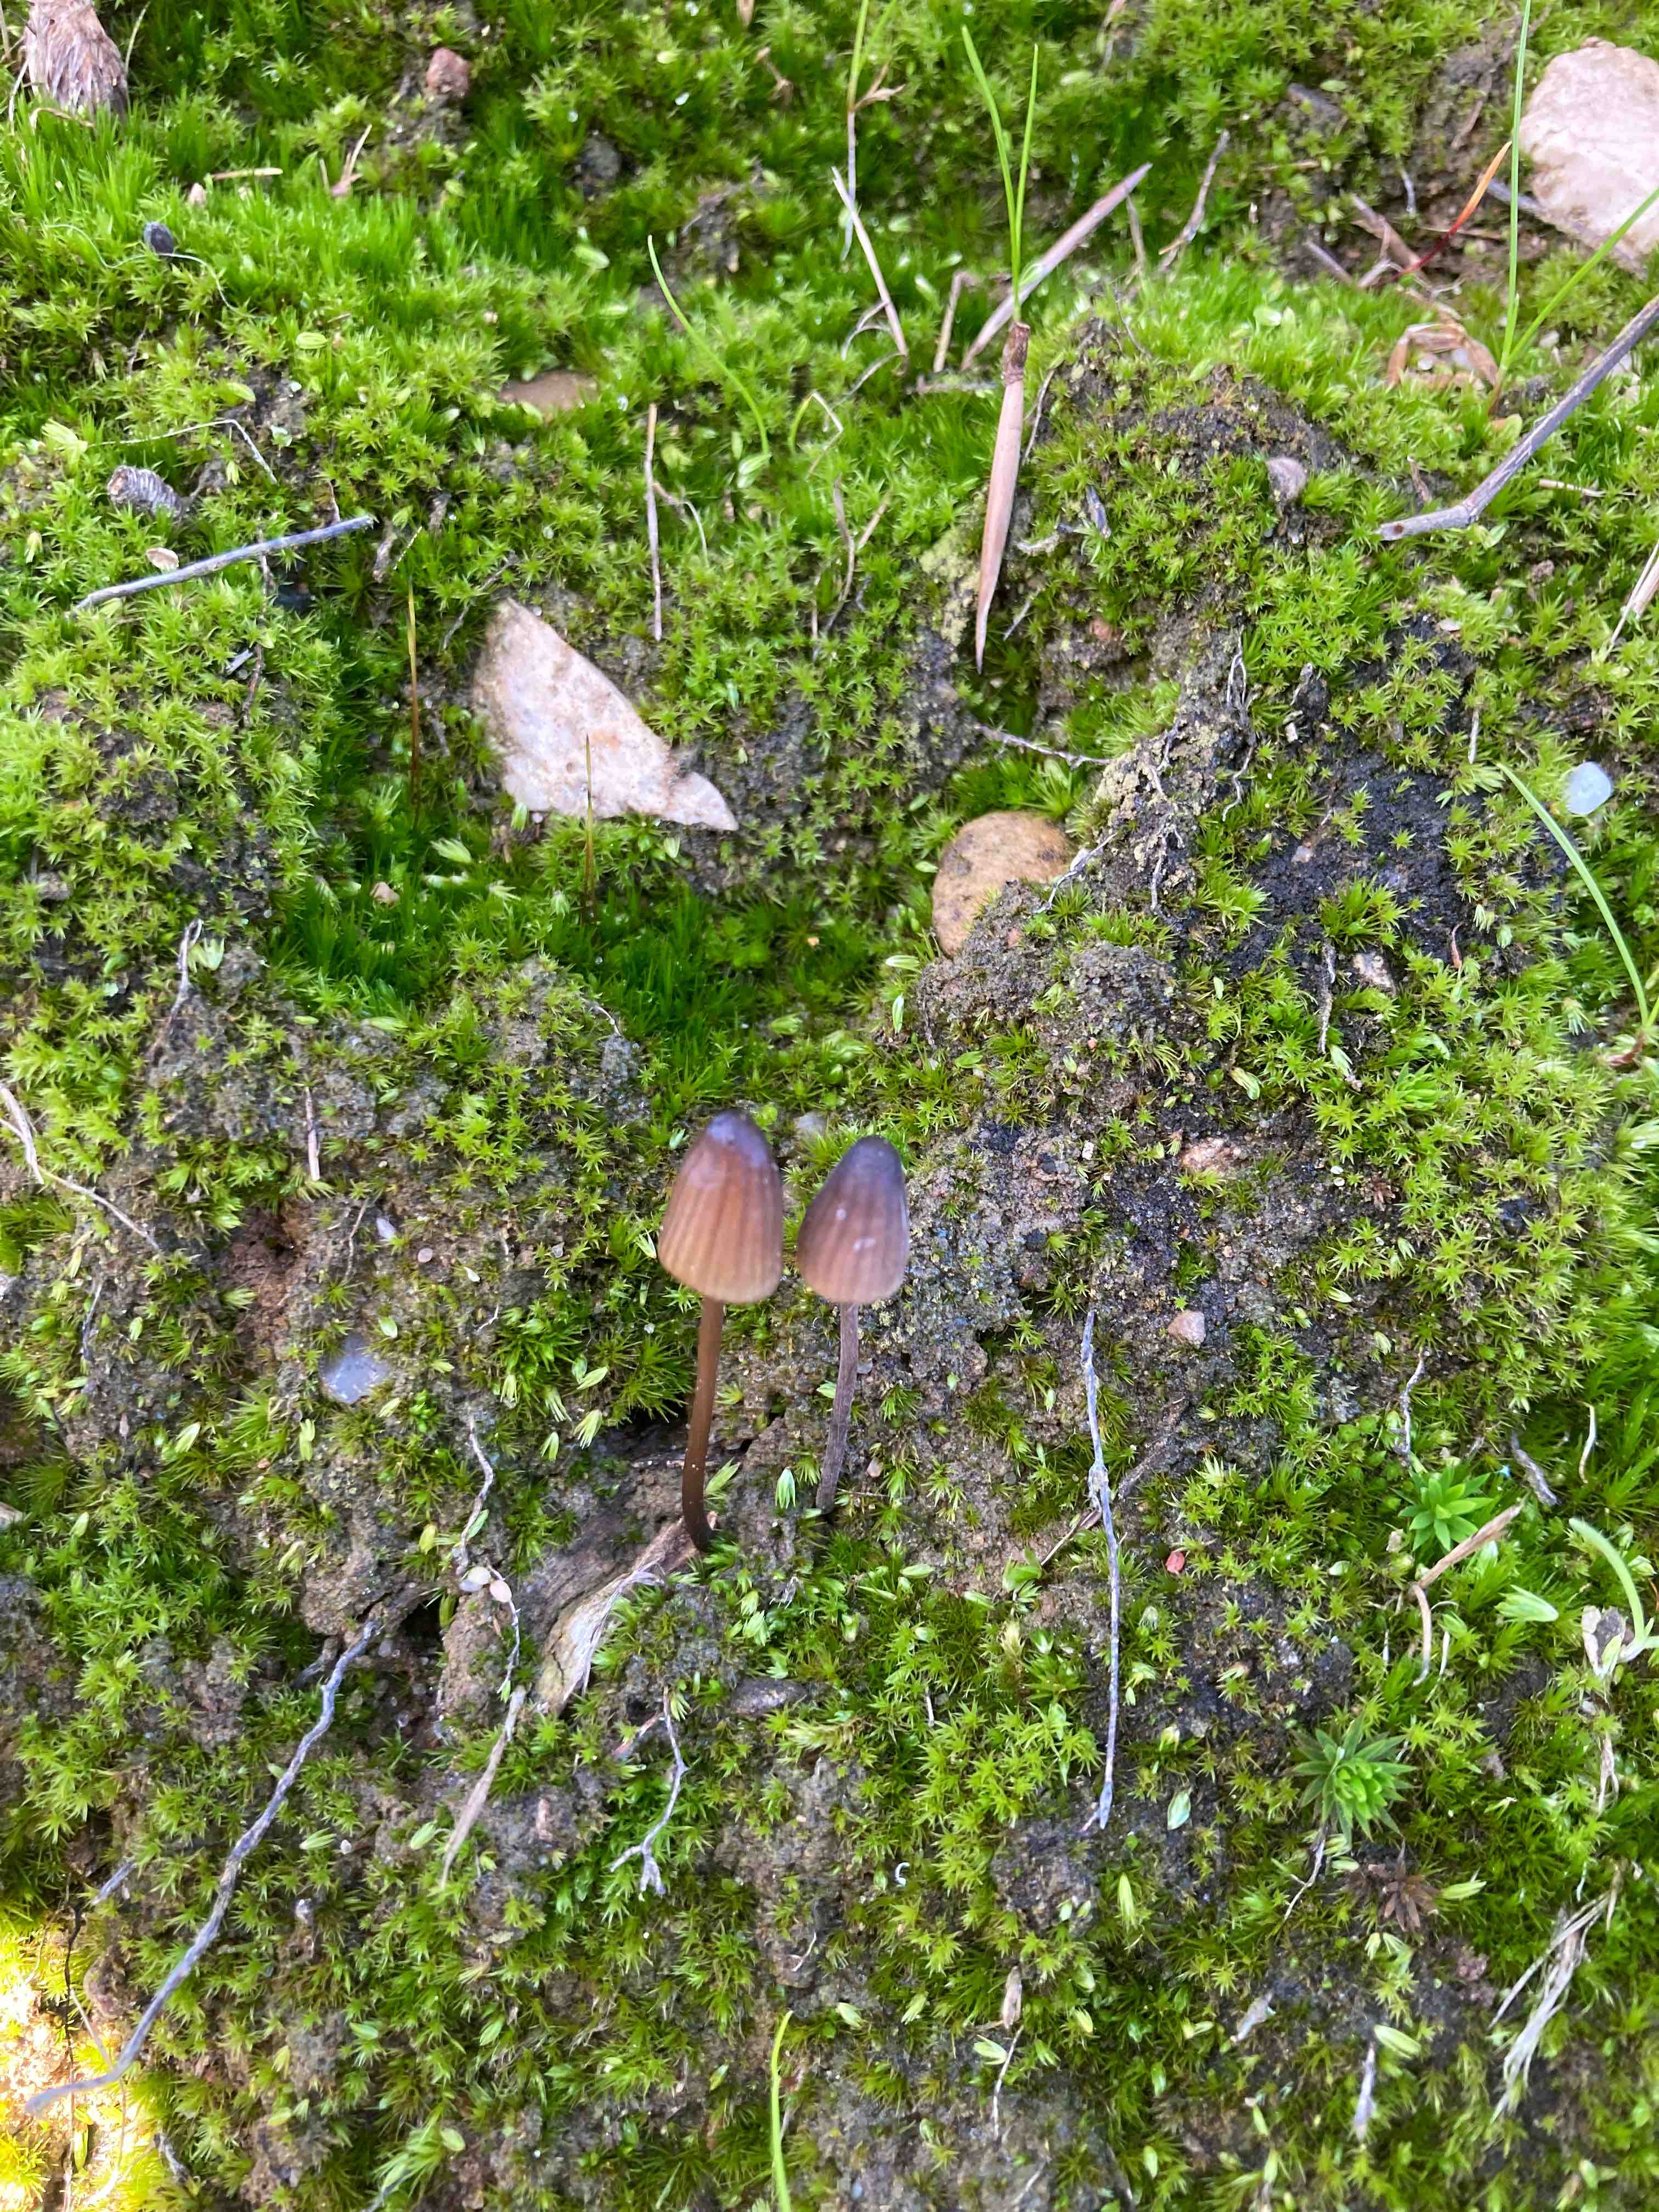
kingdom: Fungi
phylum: Basidiomycota
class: Agaricomycetes
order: Agaricales
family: Mycenaceae
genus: Mycena
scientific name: Mycena galopus
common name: hvidmælket huesvamp
